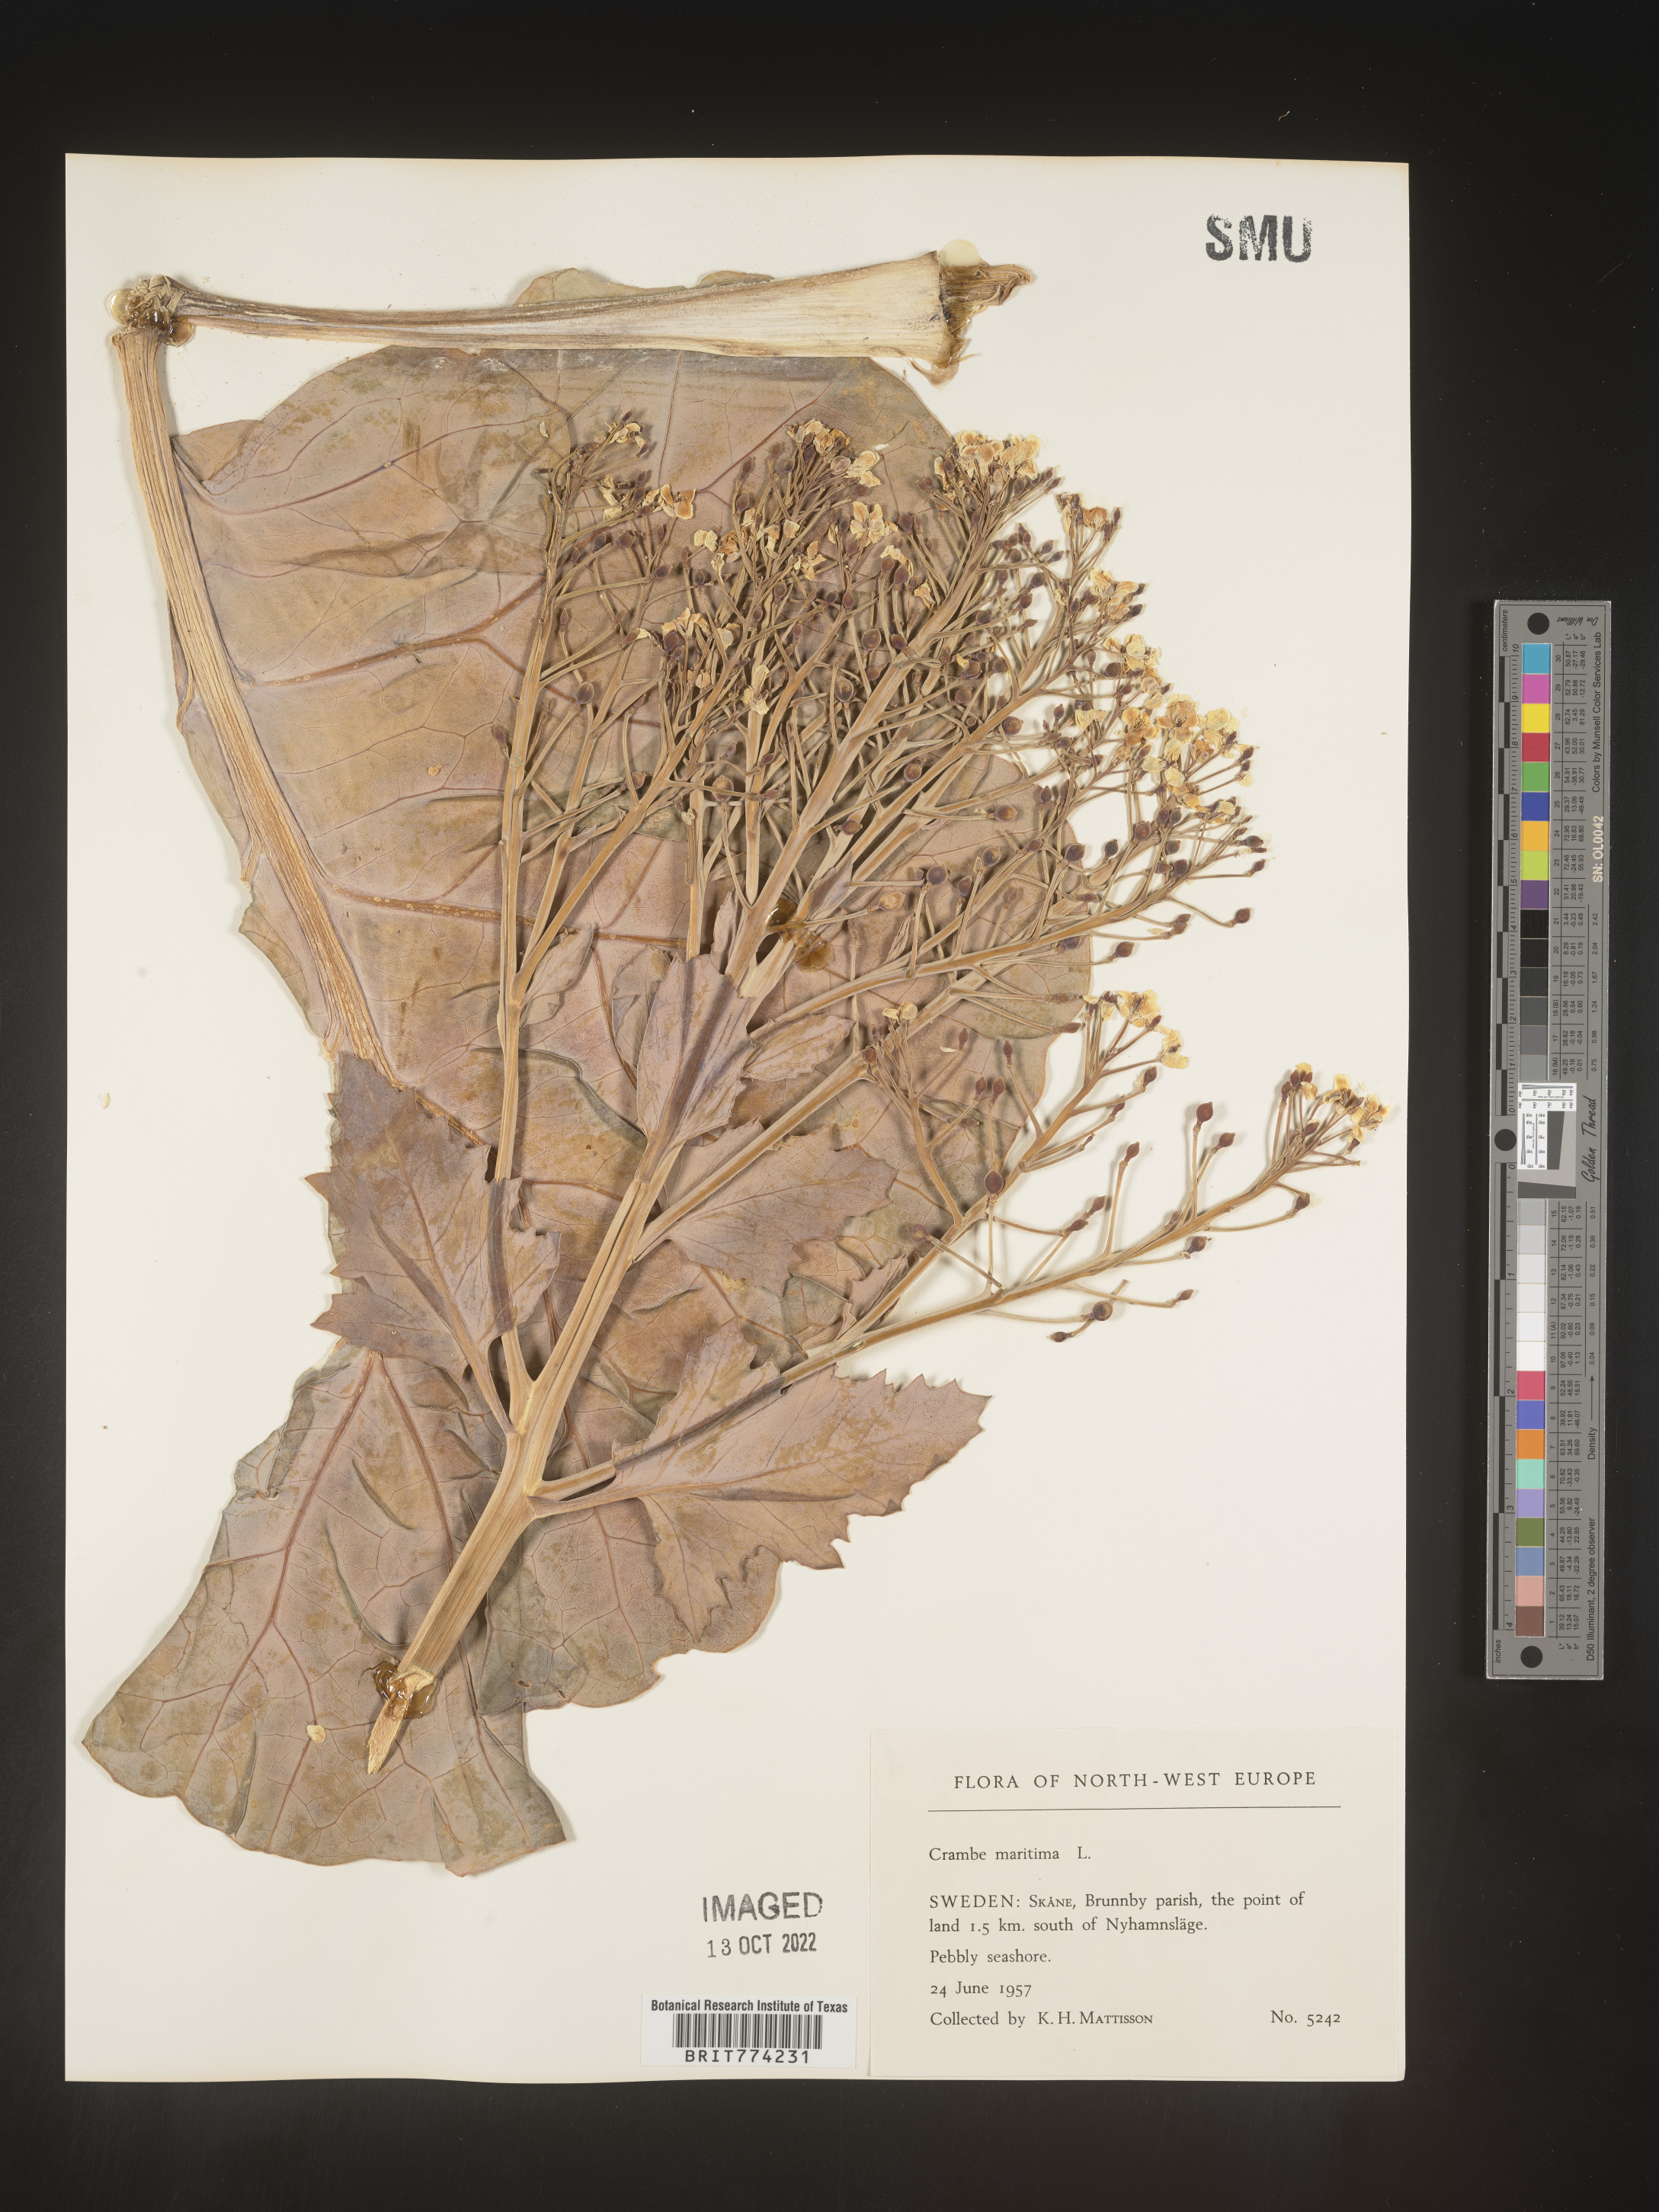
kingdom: Plantae
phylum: Tracheophyta
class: Magnoliopsida
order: Brassicales
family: Brassicaceae
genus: Crambe
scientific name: Crambe
